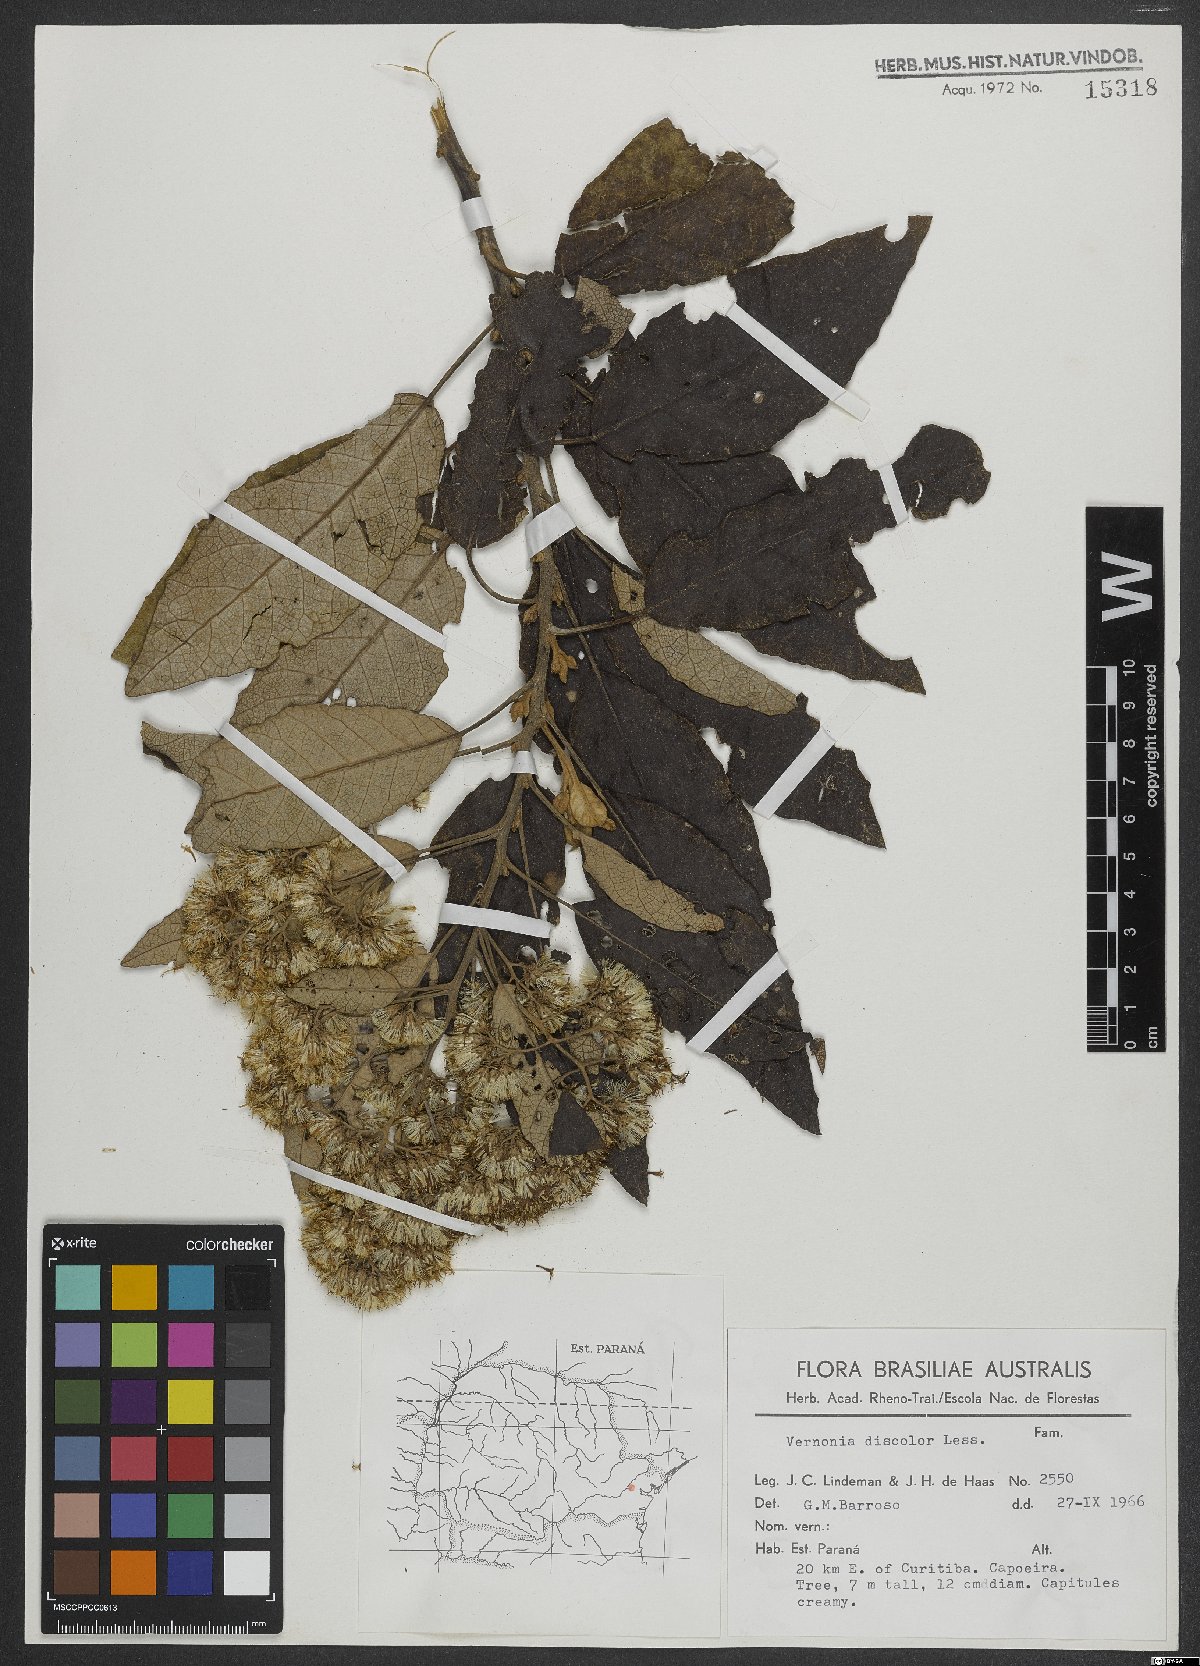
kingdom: Plantae
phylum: Tracheophyta
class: Magnoliopsida
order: Asterales
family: Asteraceae
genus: Vernonanthura
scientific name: Vernonanthura discolor
